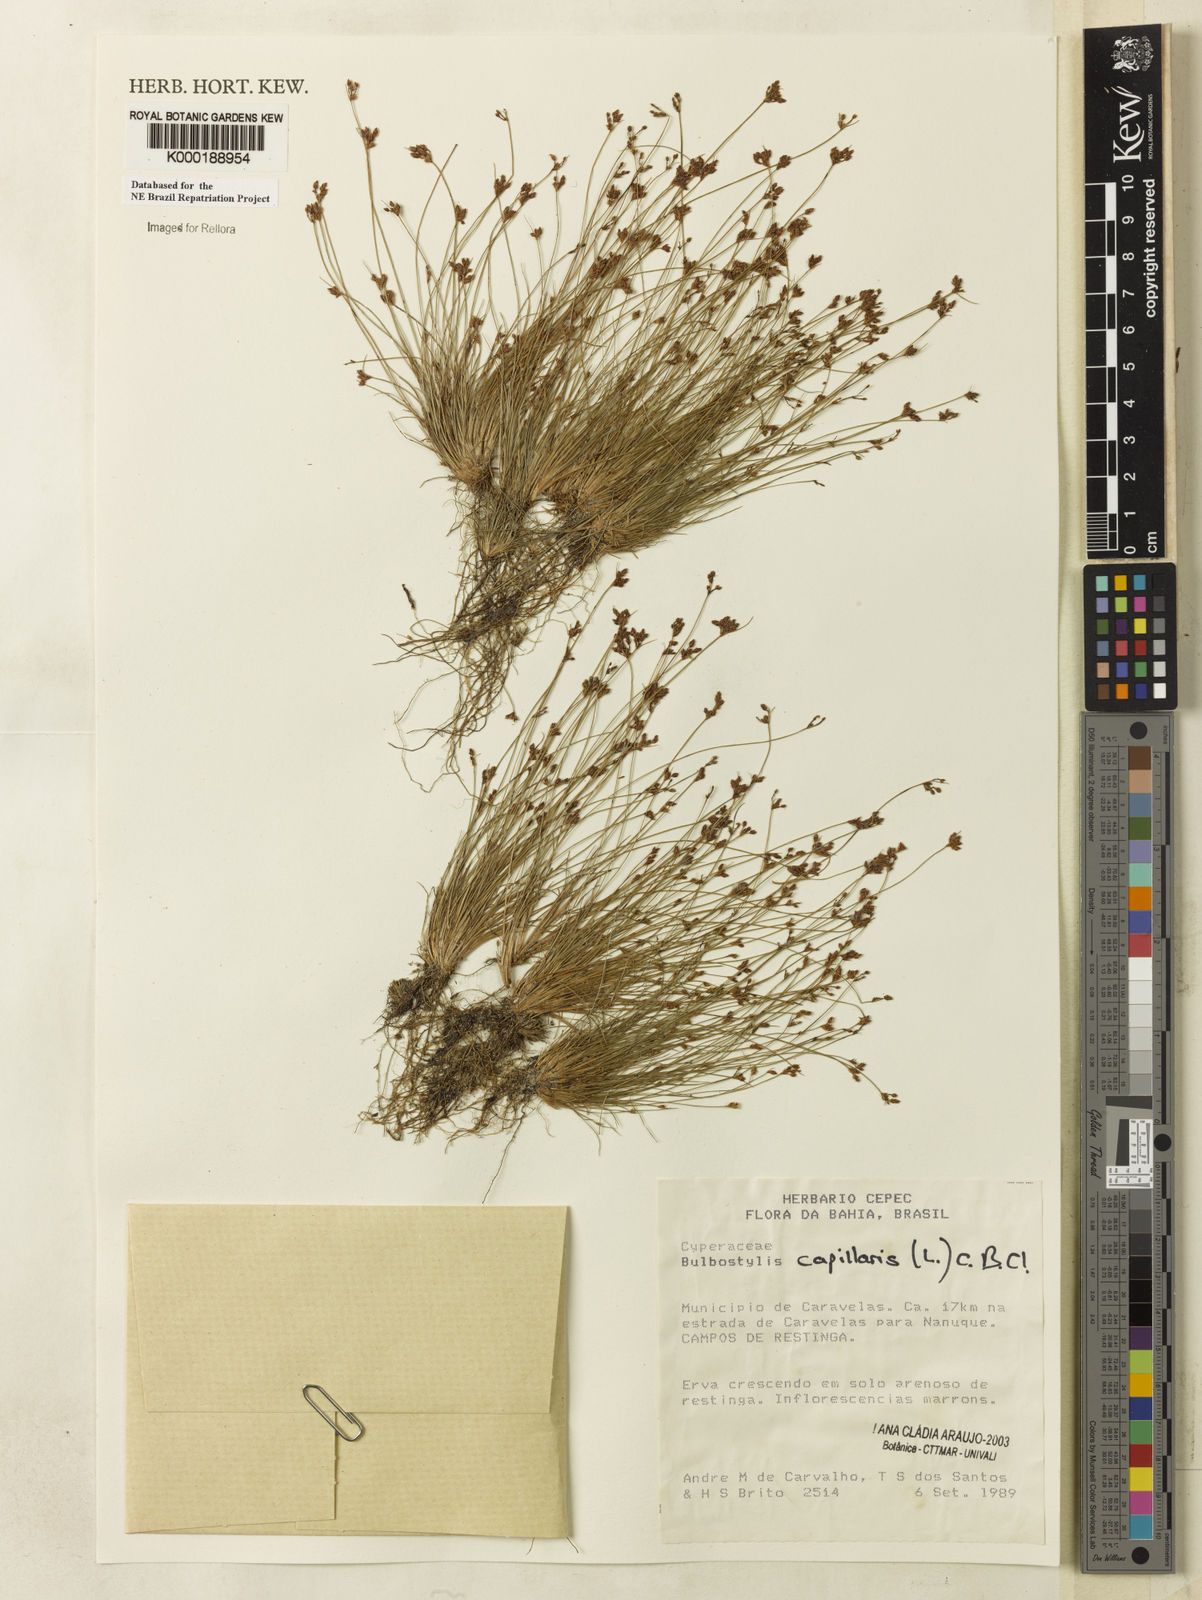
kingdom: Plantae
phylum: Tracheophyta
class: Liliopsida
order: Poales
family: Cyperaceae
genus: Bulbostylis
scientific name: Bulbostylis capillaris
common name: Densetuft hairsedge
